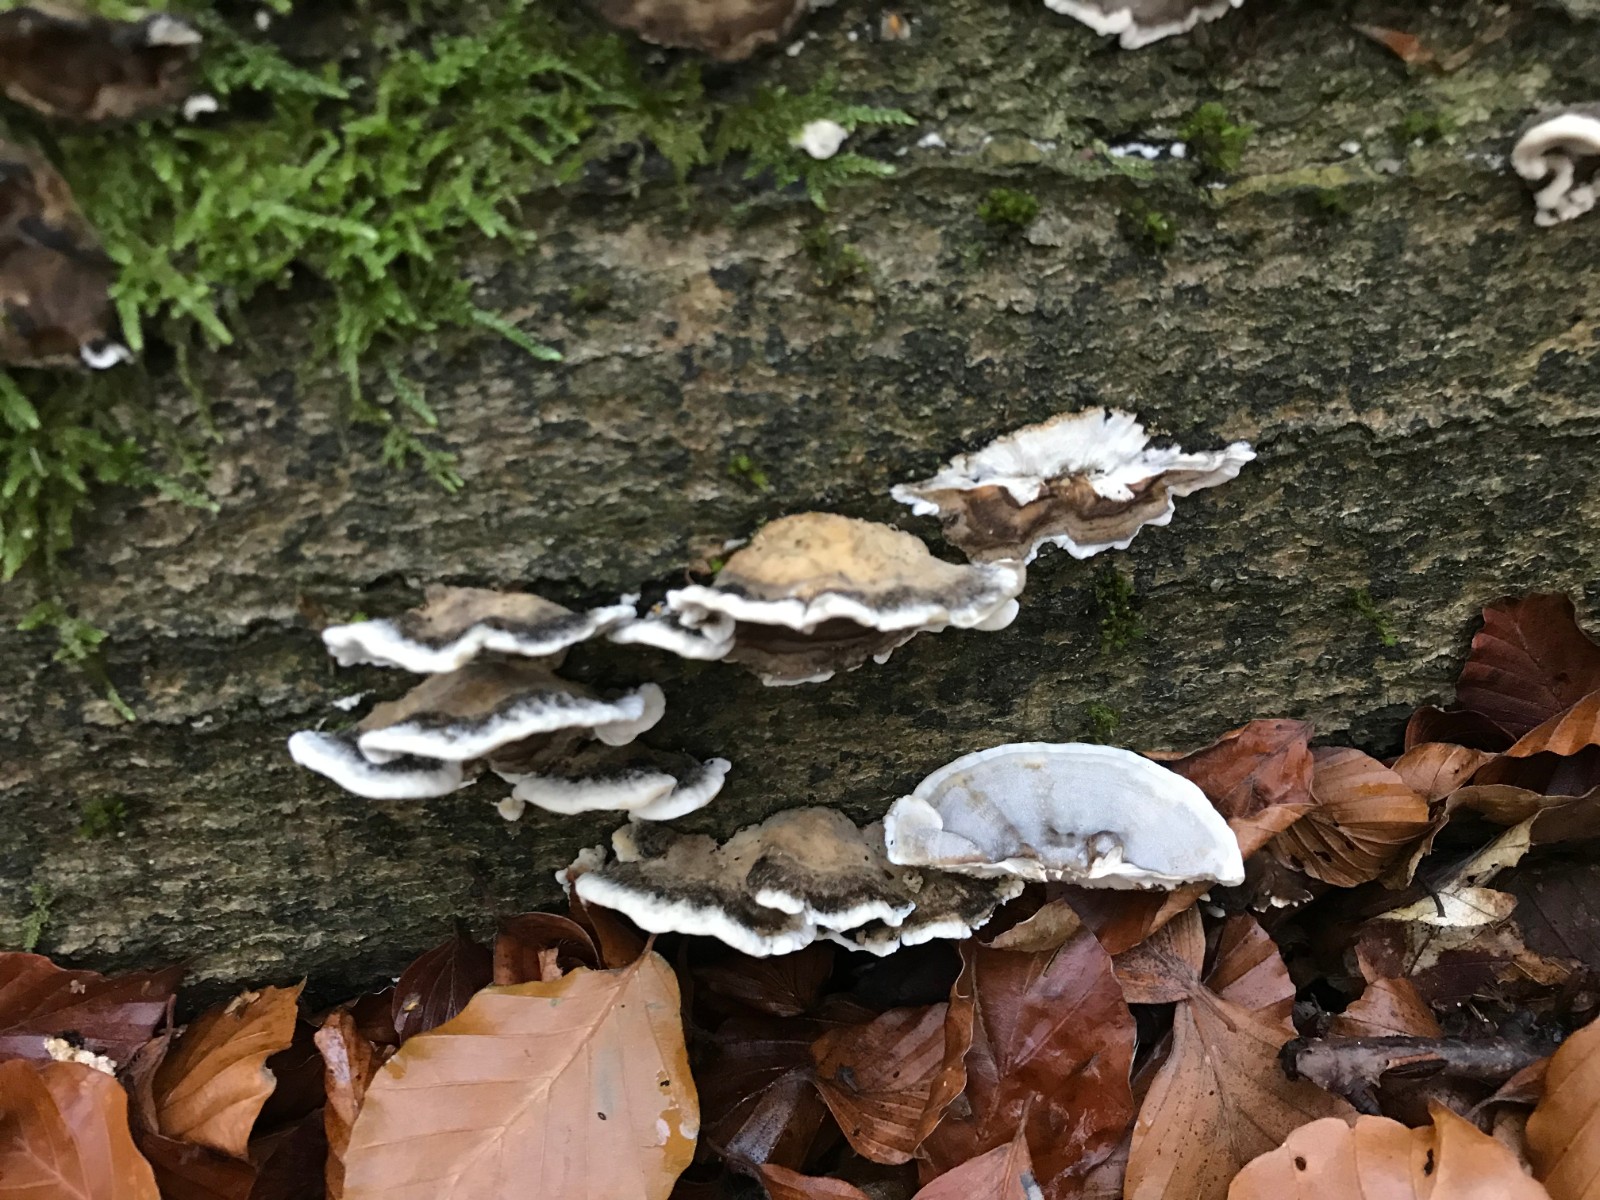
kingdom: Fungi
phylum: Basidiomycota
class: Agaricomycetes
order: Polyporales
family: Phanerochaetaceae
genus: Bjerkandera
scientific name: Bjerkandera adusta
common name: sveden sodporesvamp
